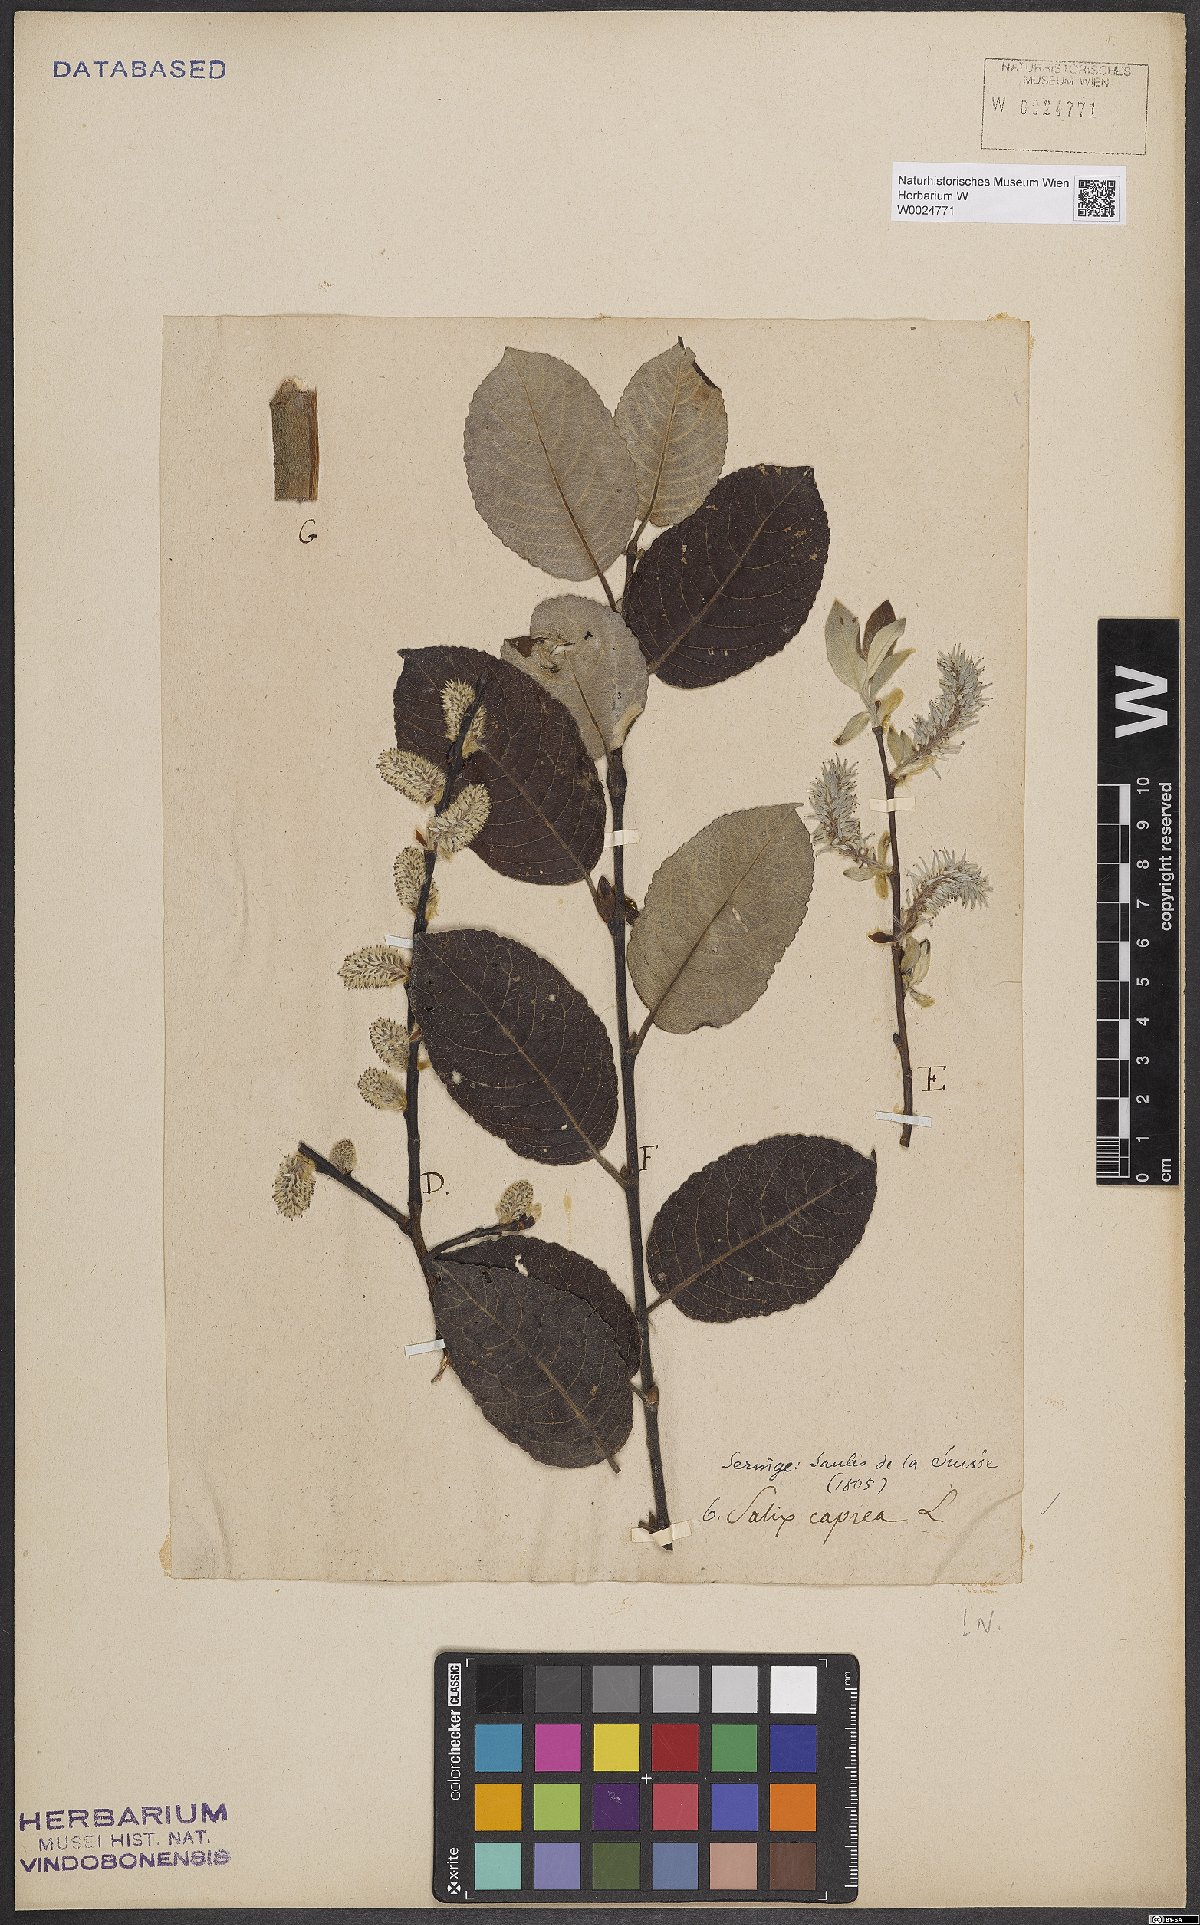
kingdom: Plantae
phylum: Tracheophyta
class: Magnoliopsida
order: Malpighiales
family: Salicaceae
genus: Salix
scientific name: Salix caprea
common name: Goat willow
